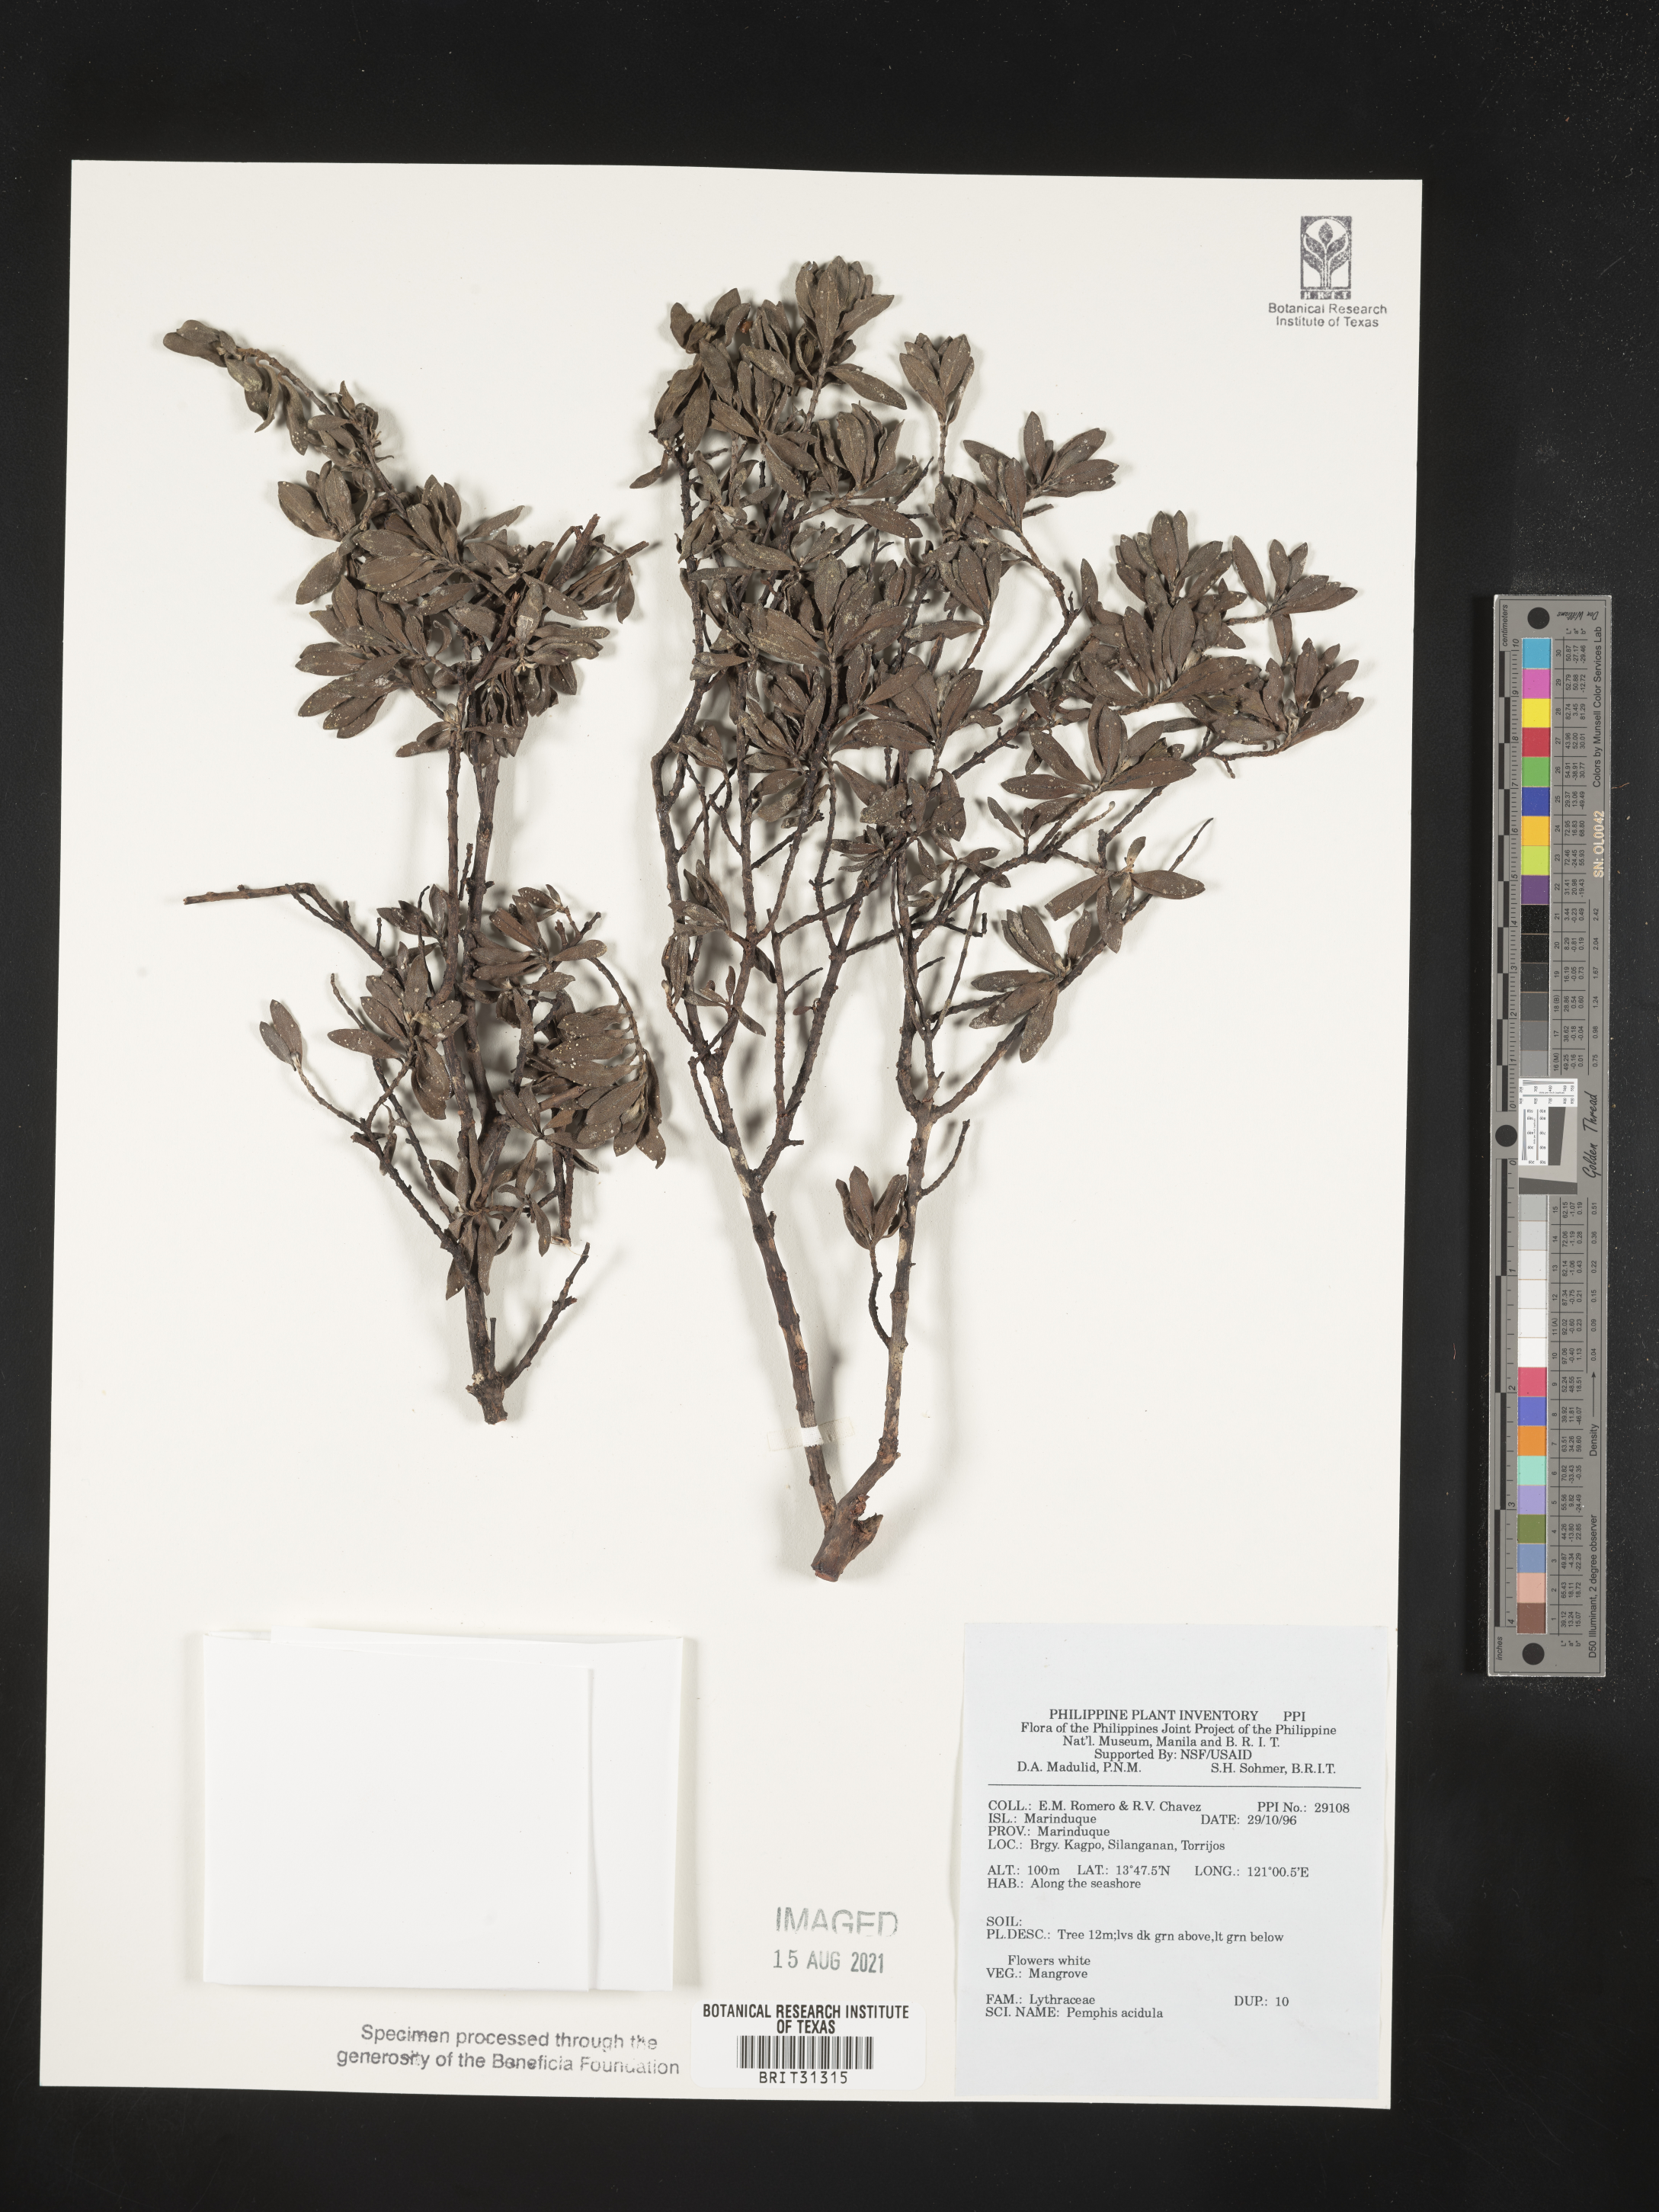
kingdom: Plantae
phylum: Tracheophyta
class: Magnoliopsida
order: Myrtales
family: Lythraceae
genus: Pemphis
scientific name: Pemphis acidula
